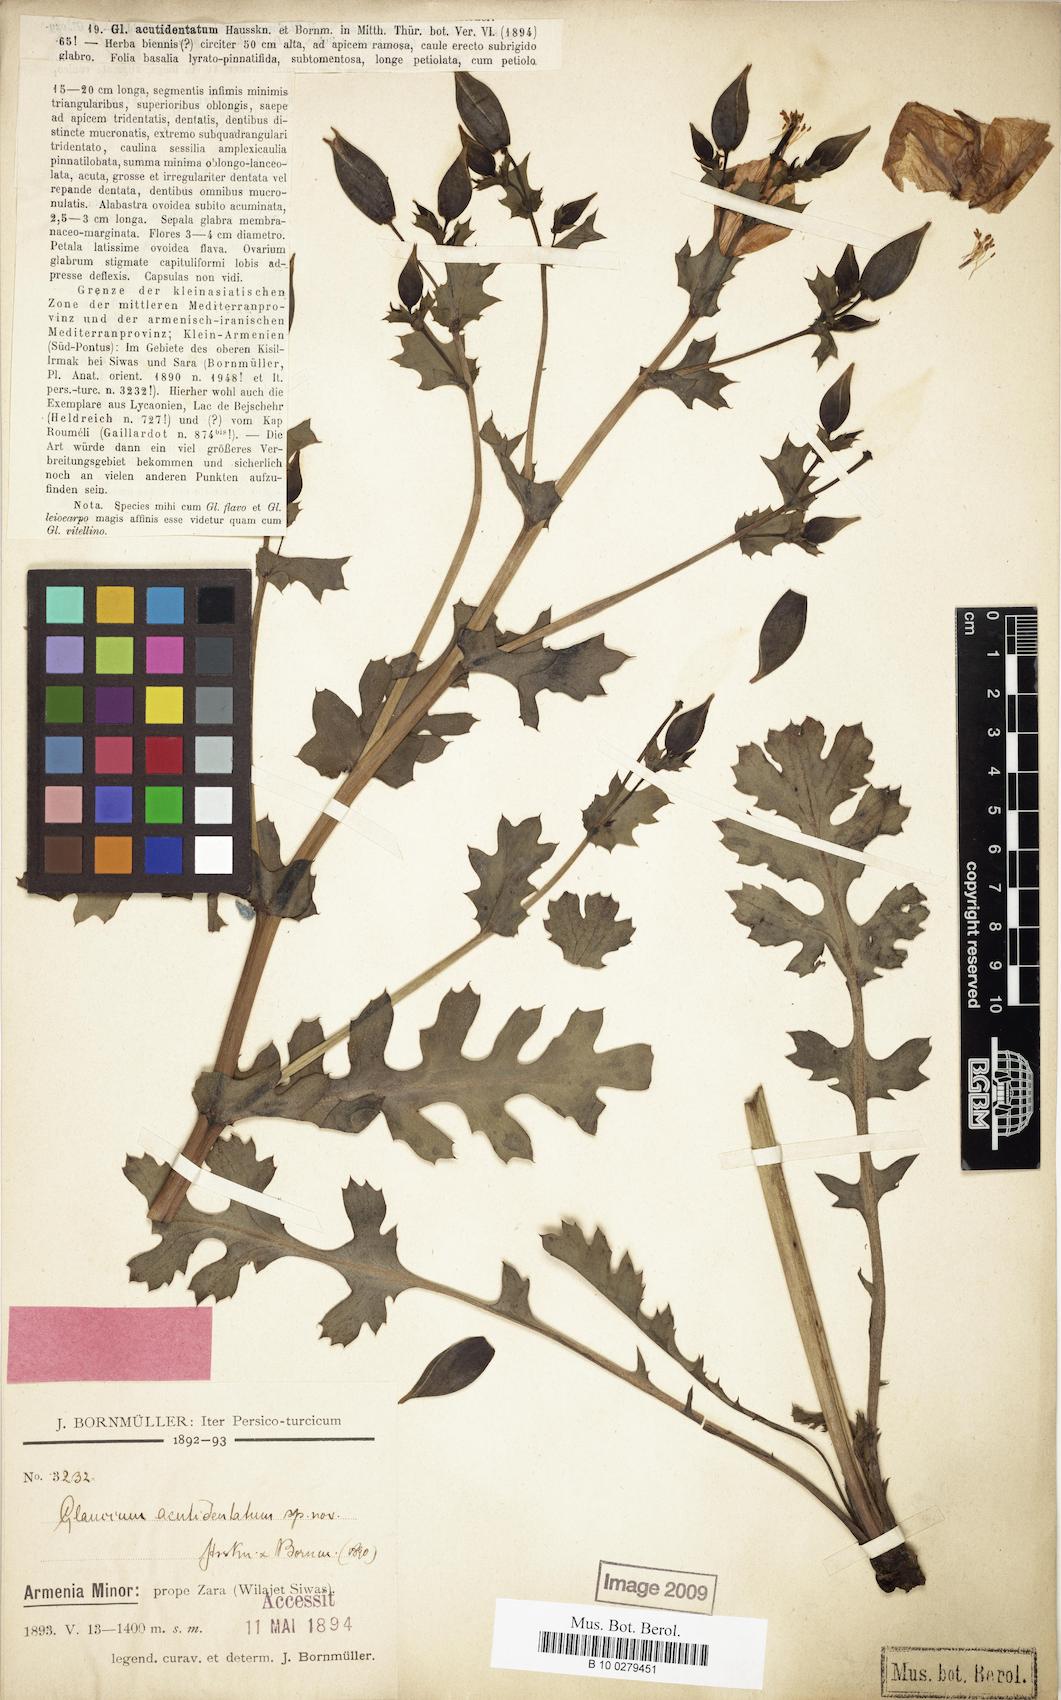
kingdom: Plantae
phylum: Tracheophyta
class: Magnoliopsida
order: Ranunculales
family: Papaveraceae
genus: Glaucium
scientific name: Glaucium acutidentatum
